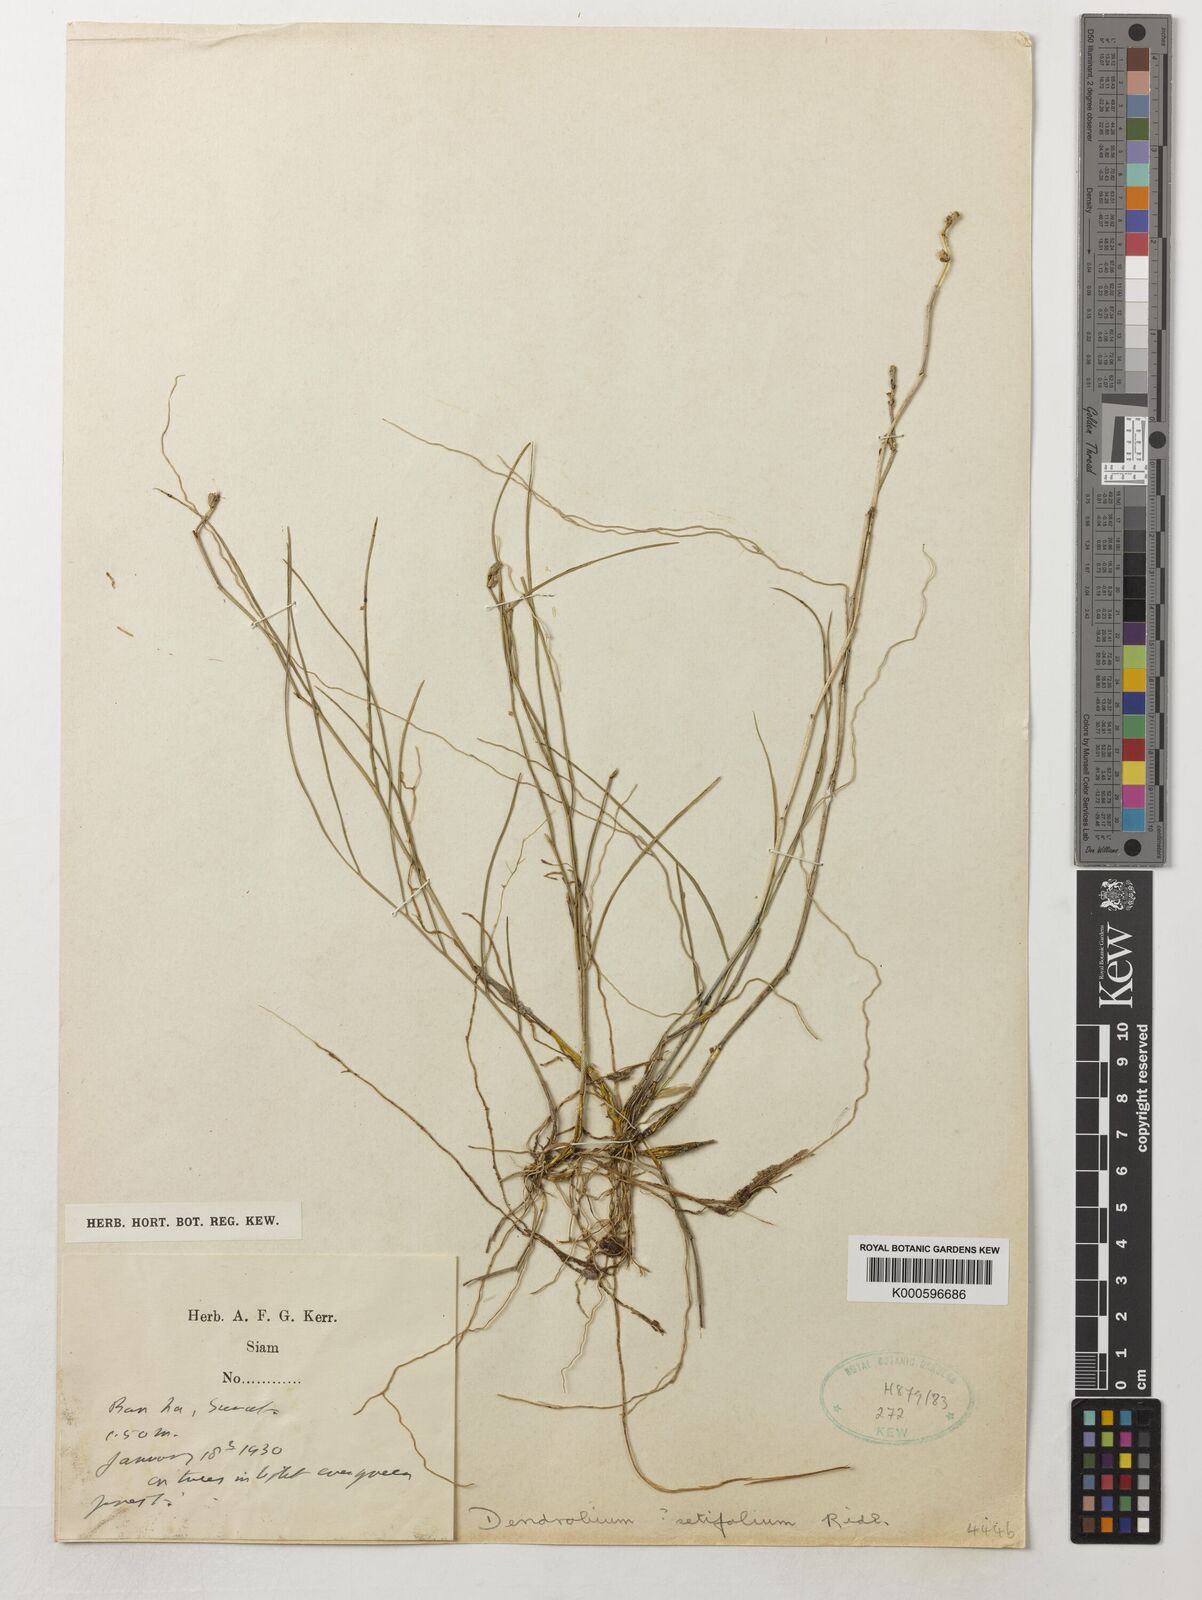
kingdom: Plantae
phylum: Tracheophyta
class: Liliopsida
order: Asparagales
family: Orchidaceae
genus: Dendrobium
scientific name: Dendrobium setifolium
